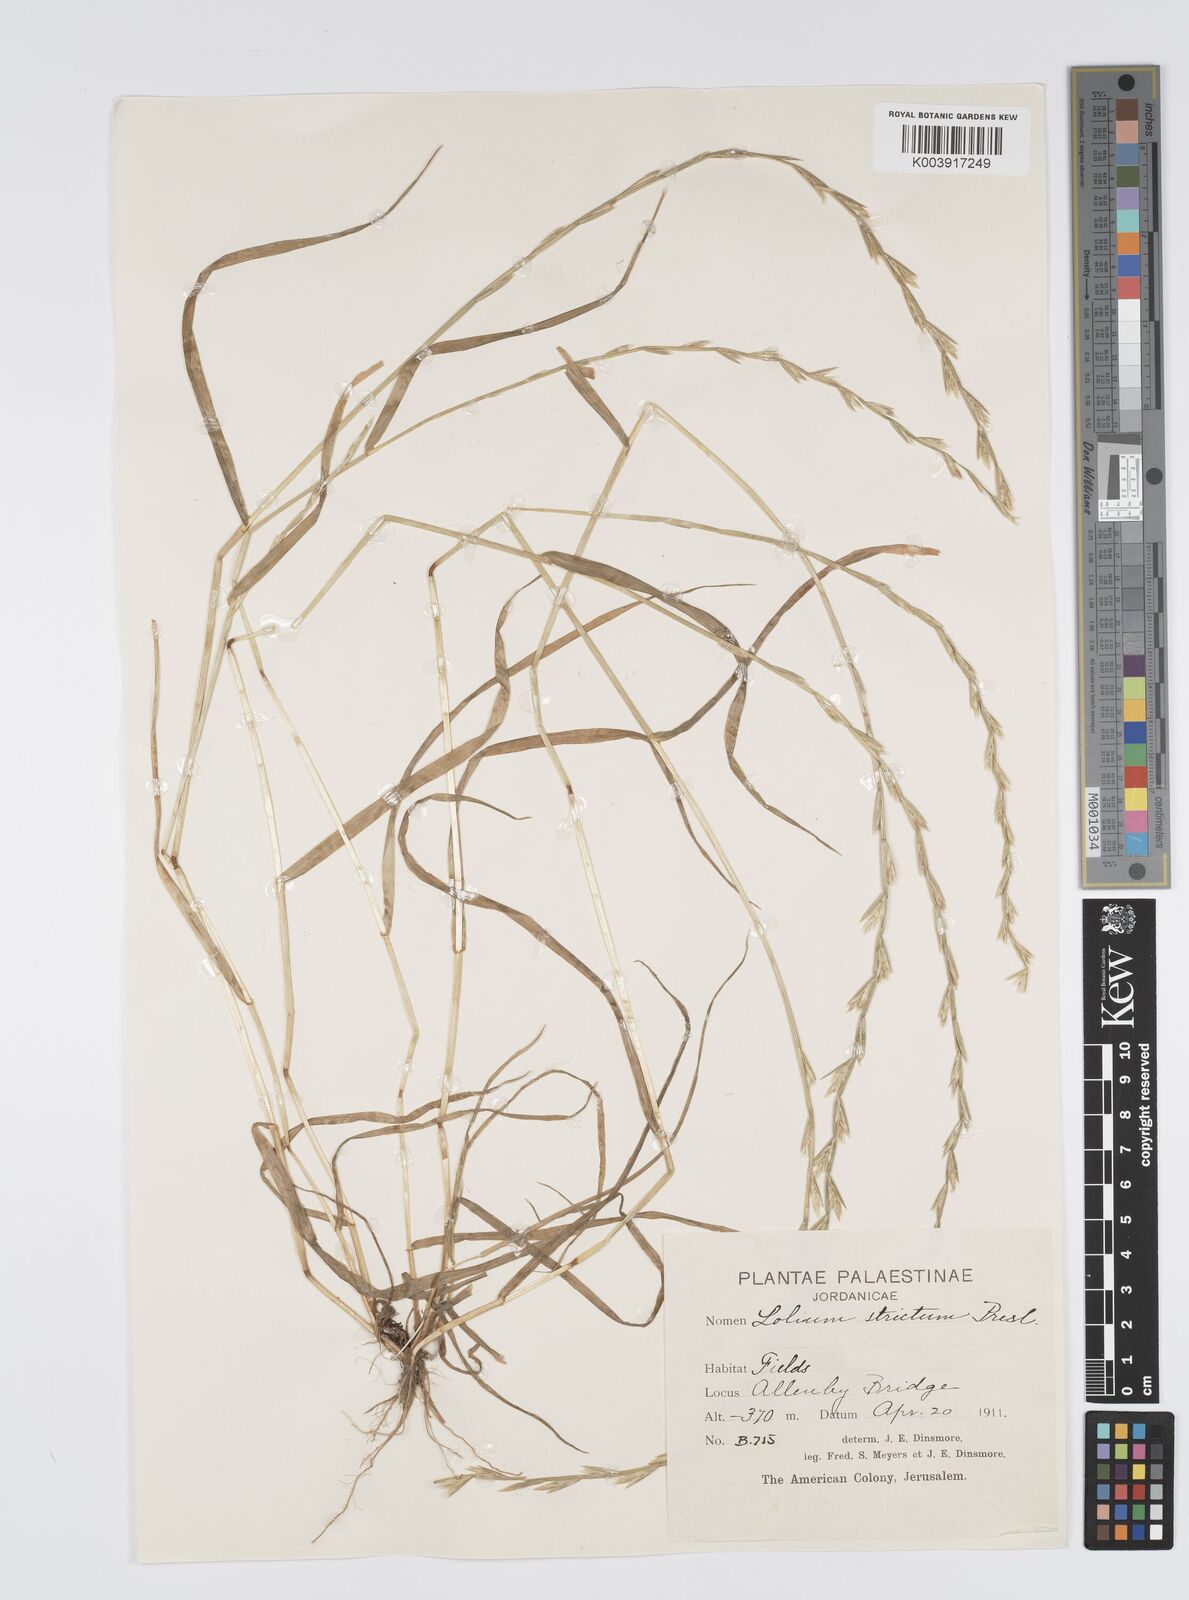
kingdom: Plantae
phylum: Tracheophyta
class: Liliopsida
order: Poales
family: Poaceae
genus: Lolium
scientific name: Lolium rigidum
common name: Wimmera ryegrass
